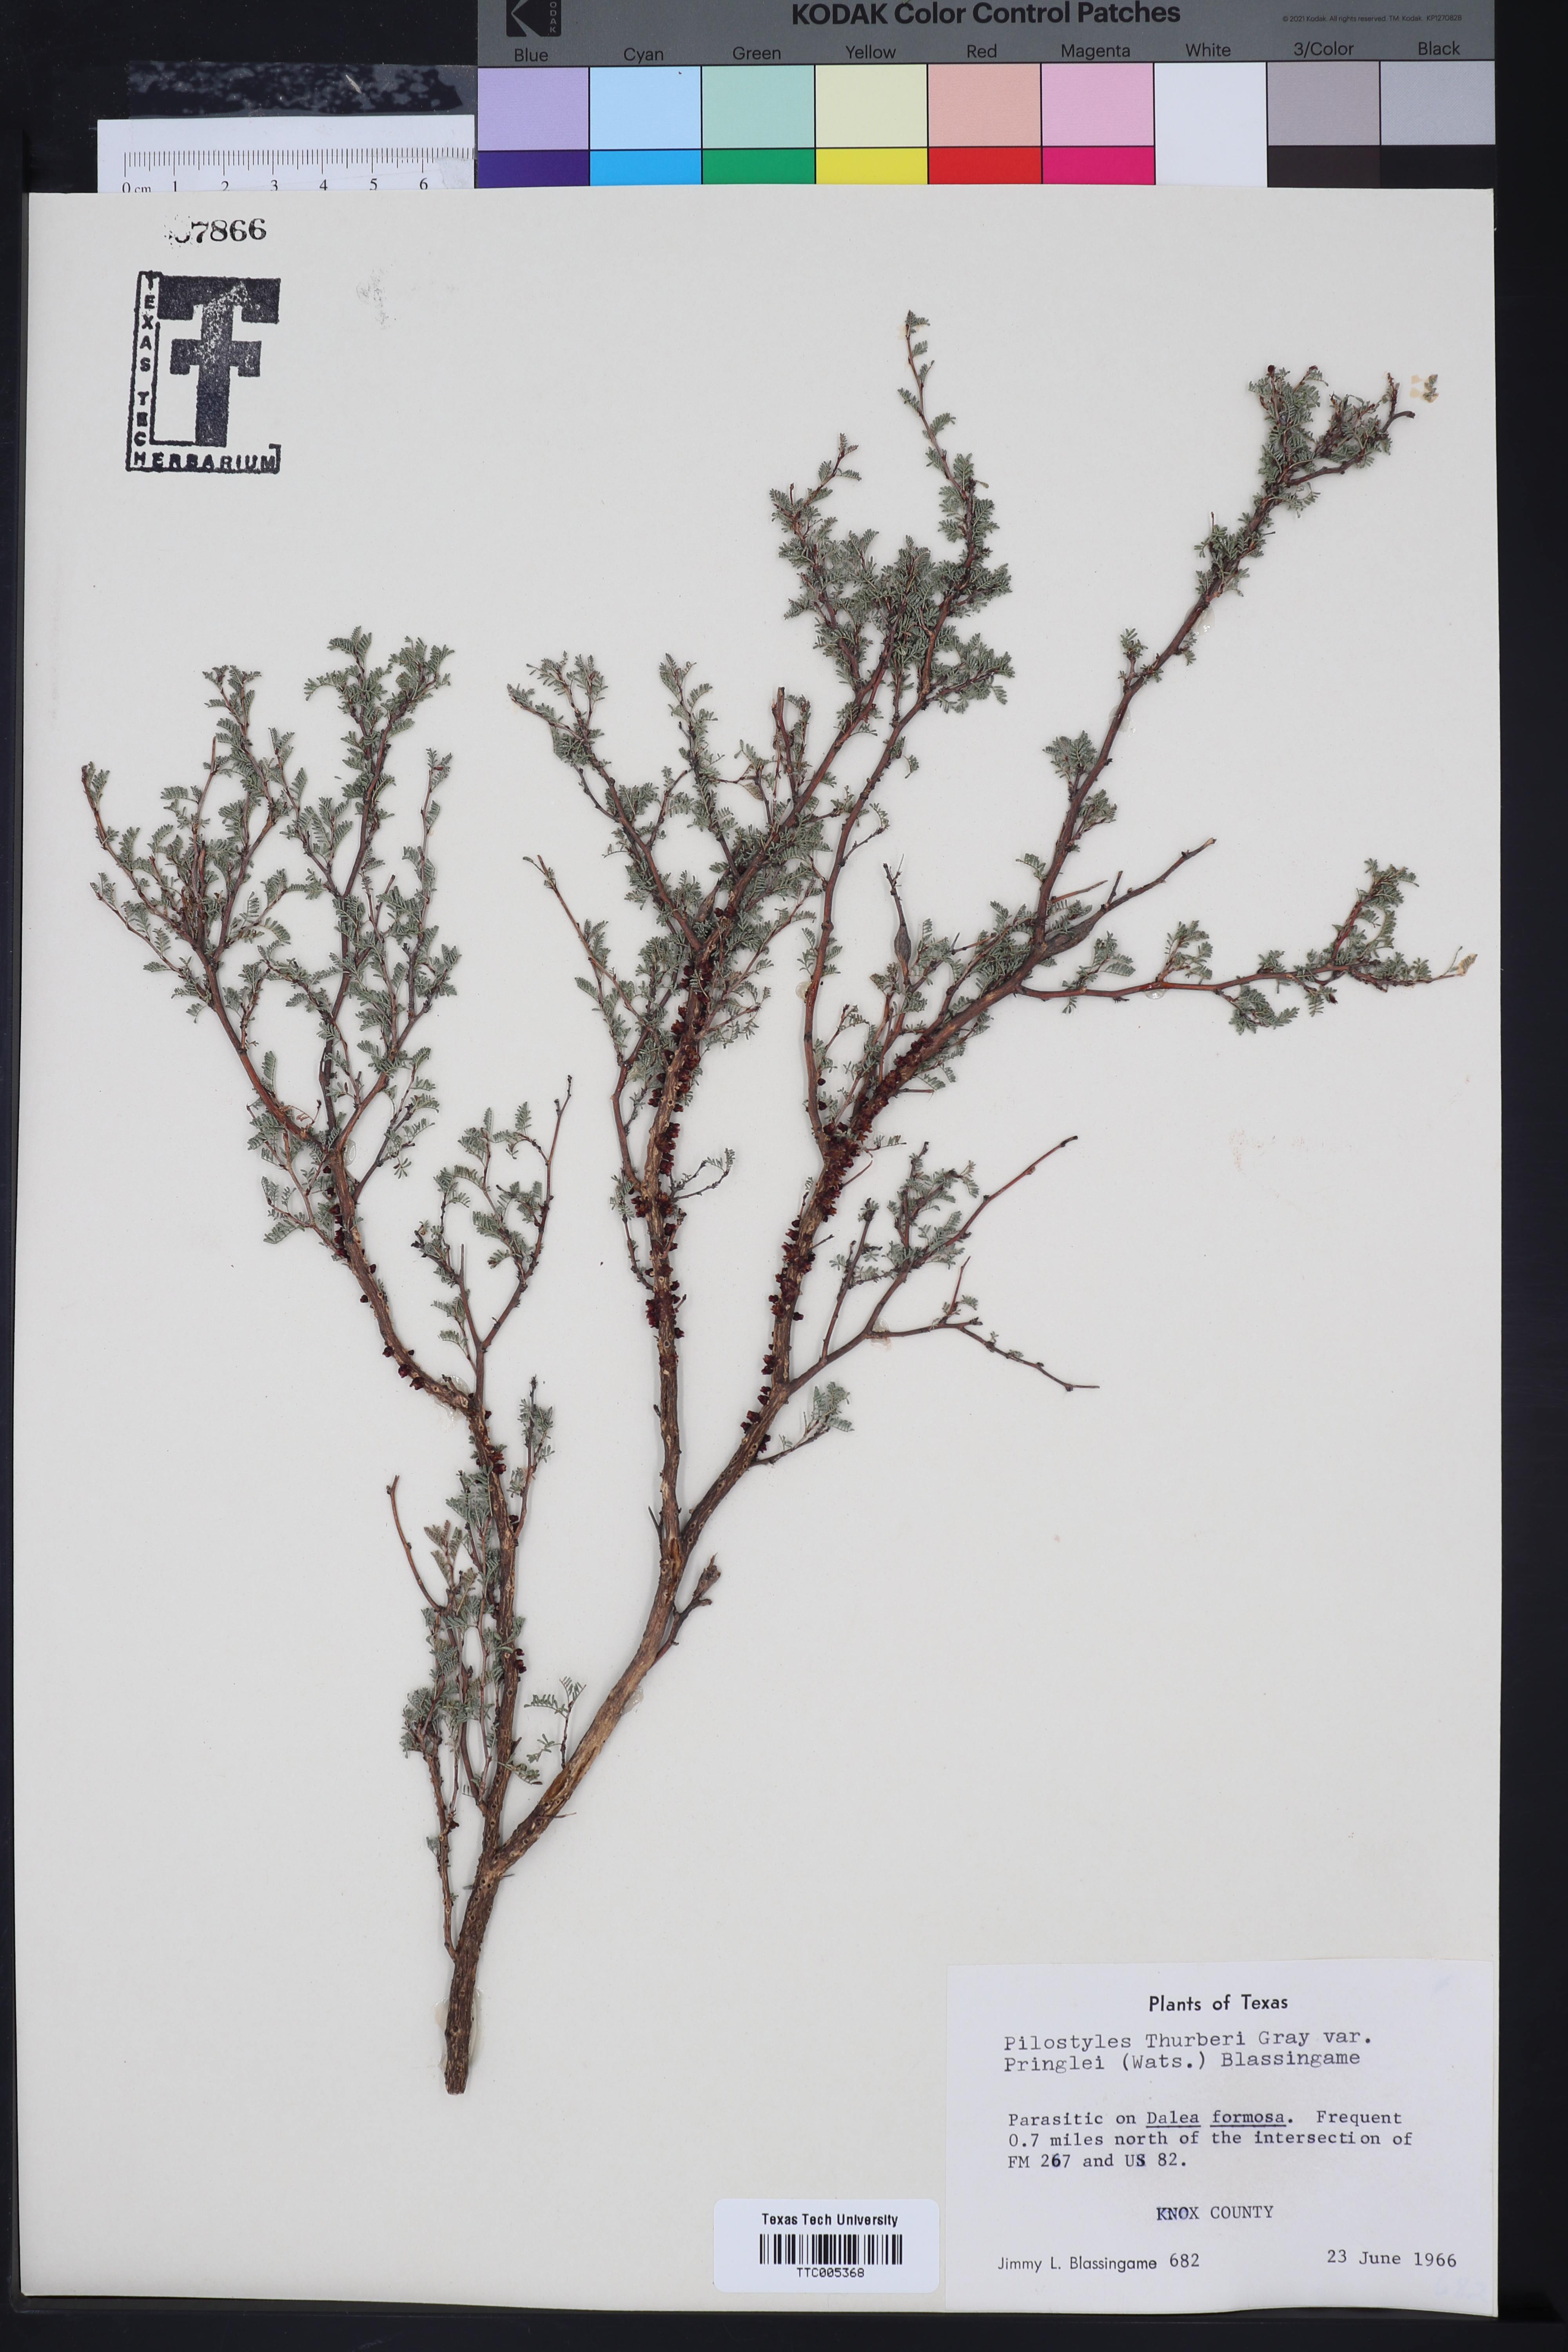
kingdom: Plantae
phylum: Tracheophyta
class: Magnoliopsida
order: Cucurbitales
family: Apodanthaceae
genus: Pilostyles
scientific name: Pilostyles thurberi
